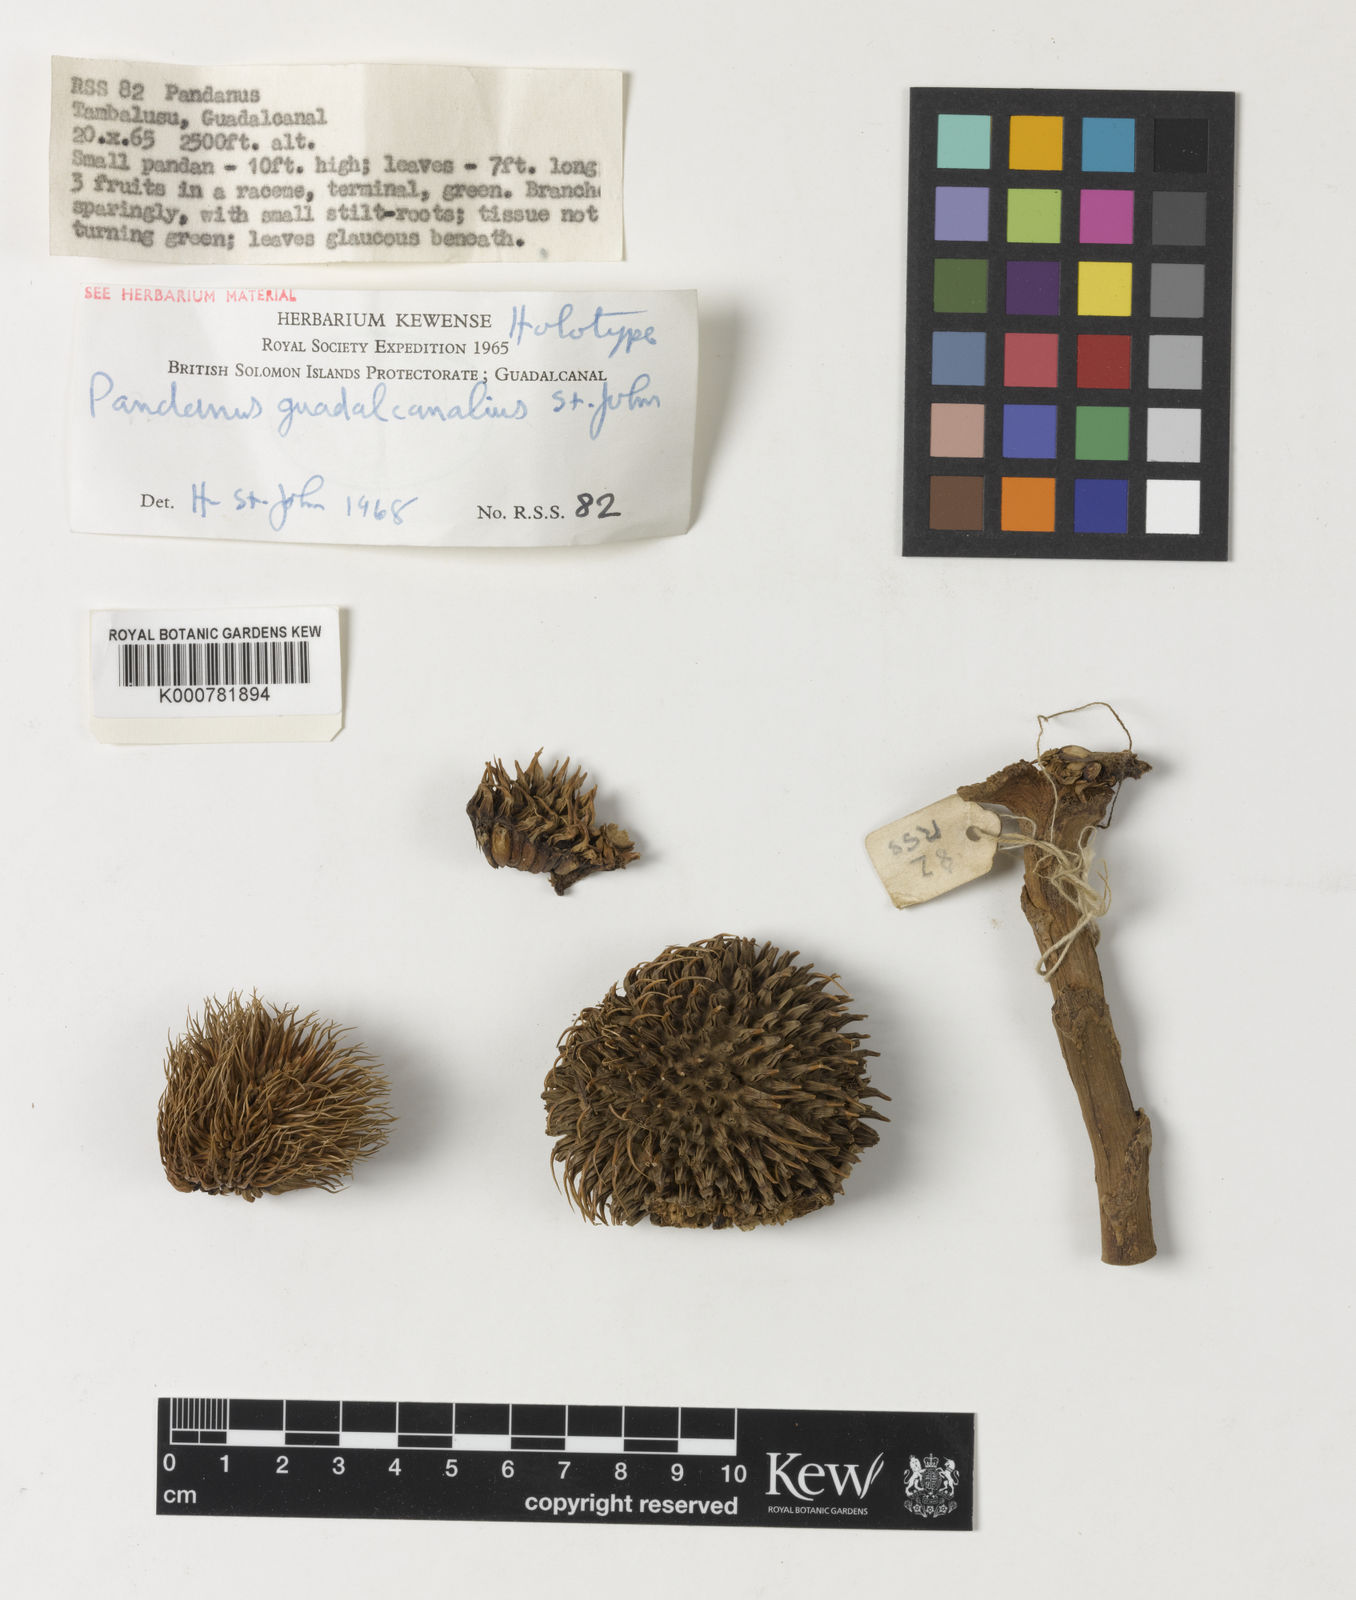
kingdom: Plantae
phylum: Tracheophyta
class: Liliopsida
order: Pandanales
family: Pandanaceae
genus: Pandanus
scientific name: Pandanus
